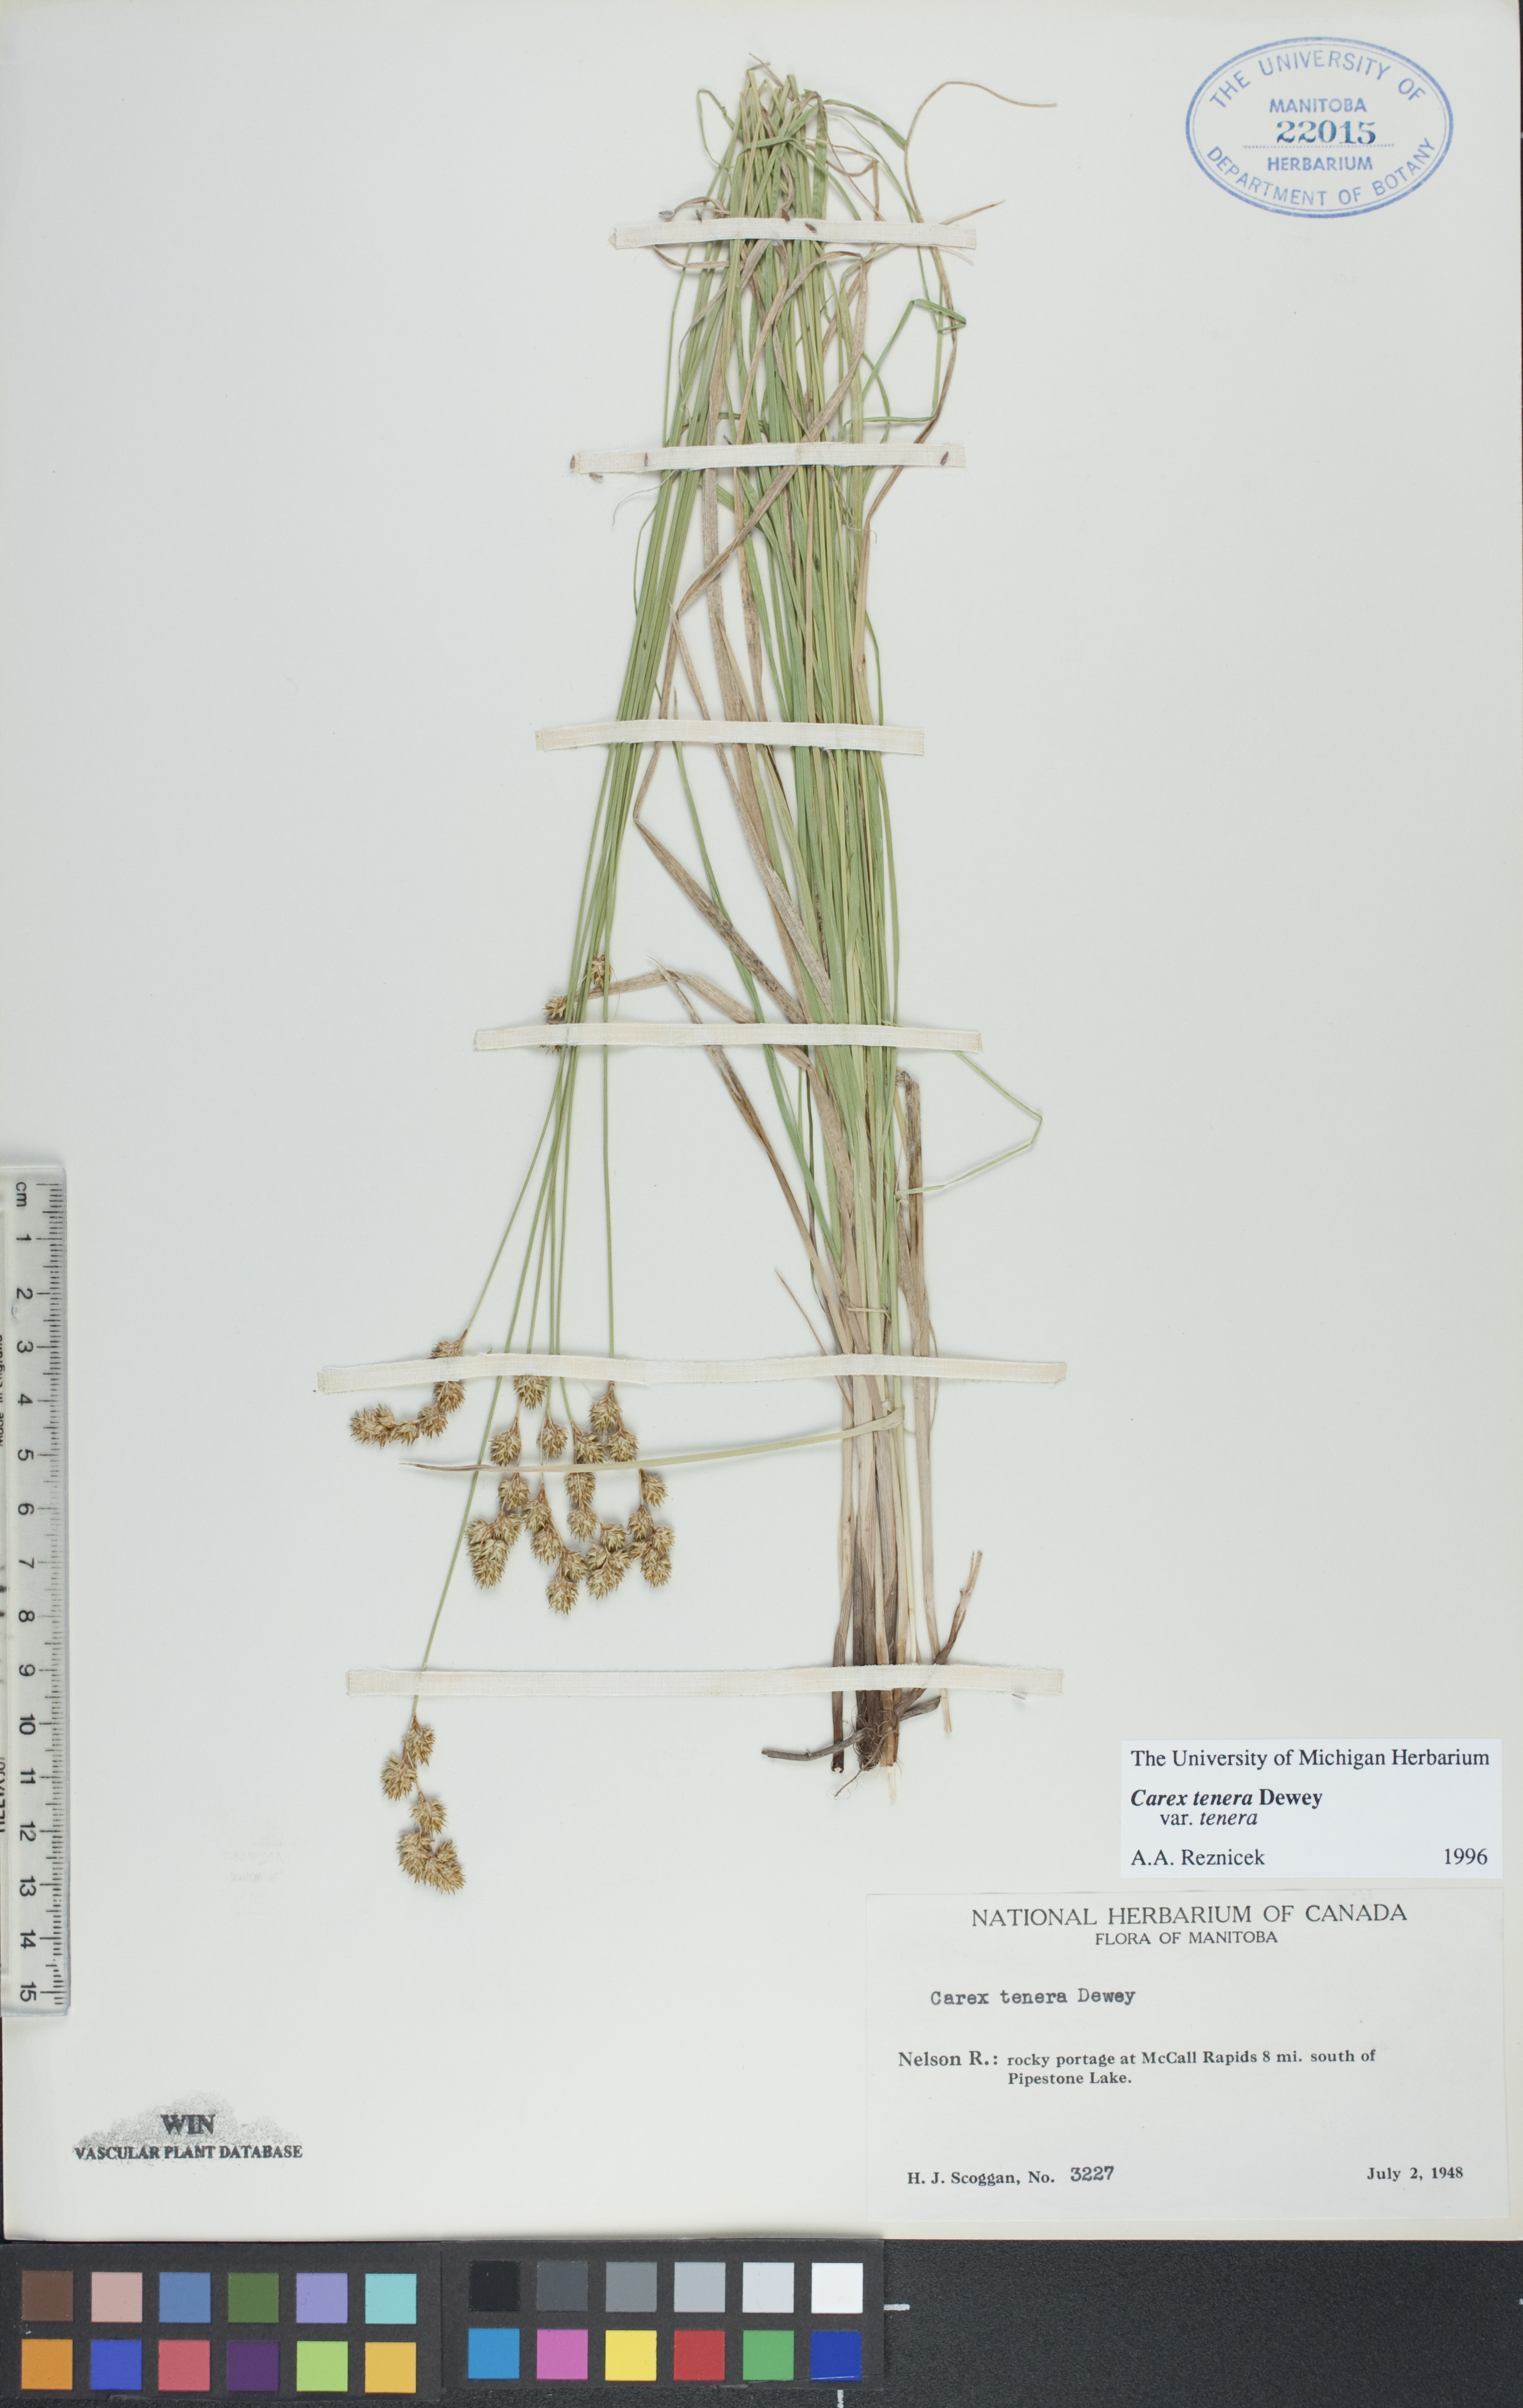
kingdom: Plantae
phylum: Tracheophyta
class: Liliopsida
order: Poales
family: Cyperaceae
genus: Carex
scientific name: Carex tenera
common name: Broad-fruited sedge
